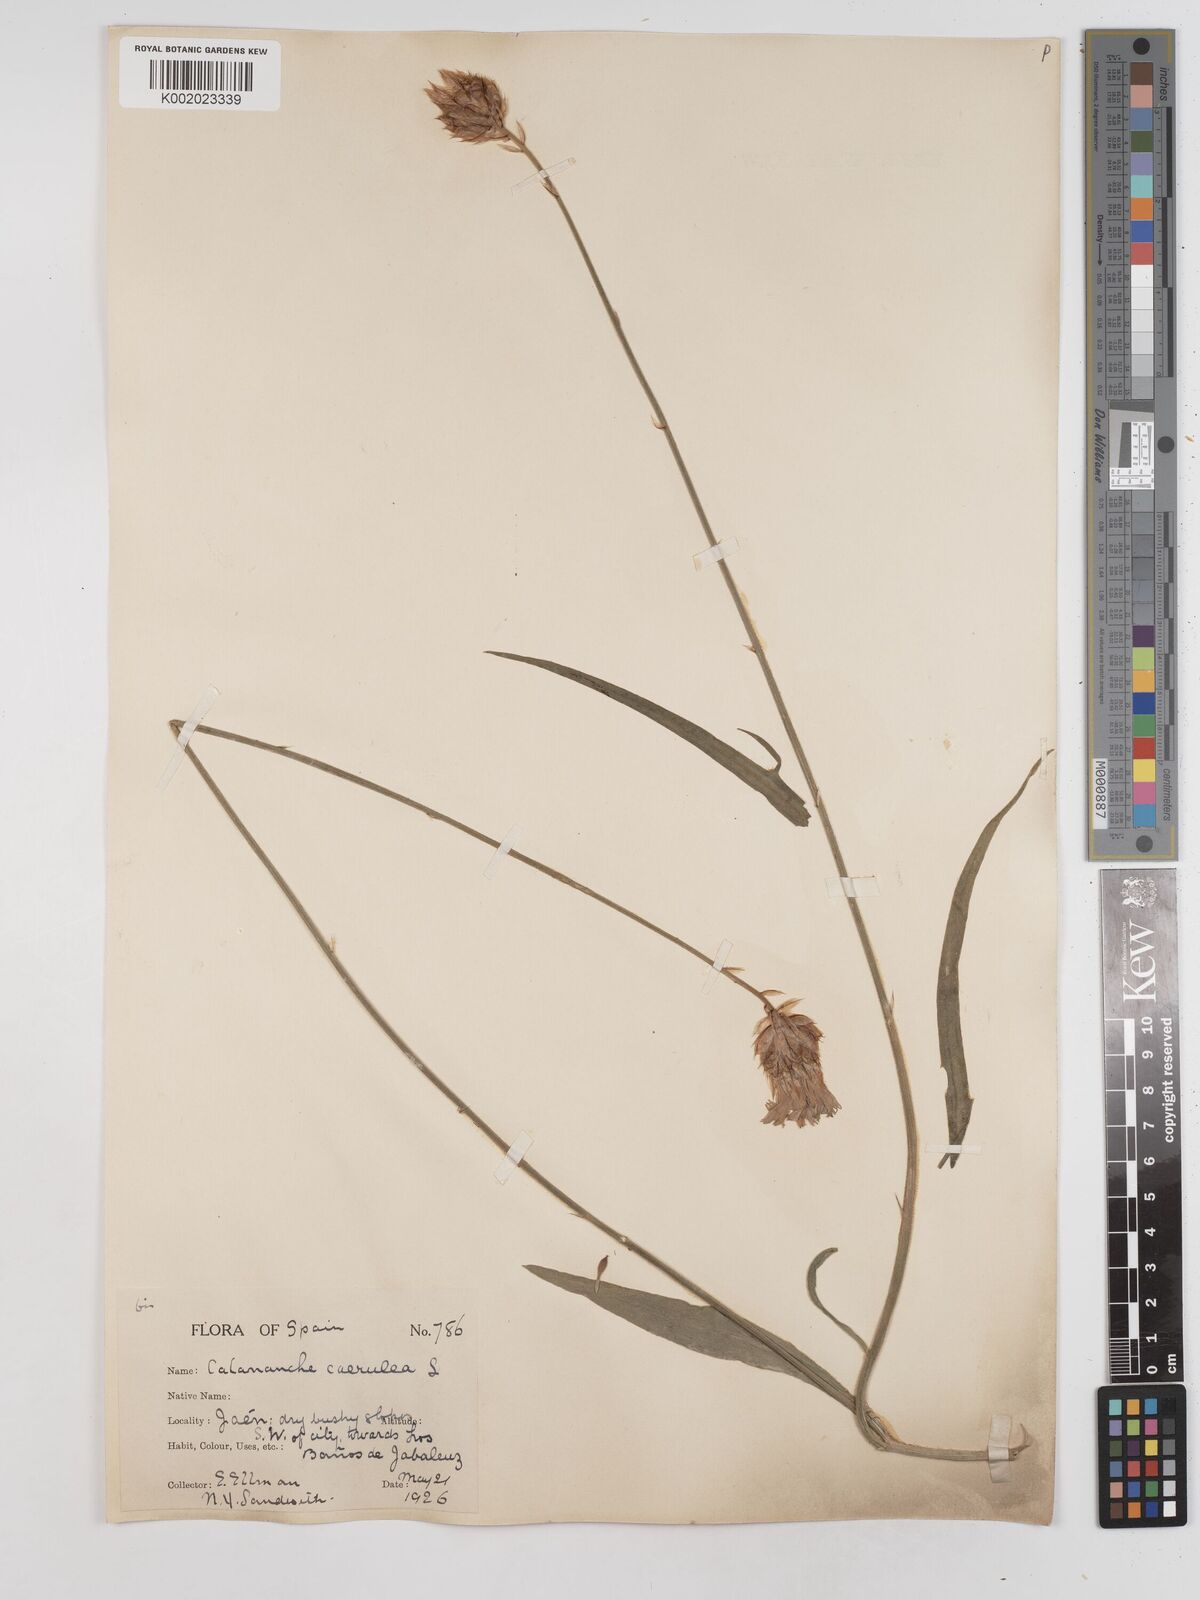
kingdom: Plantae
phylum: Tracheophyta
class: Magnoliopsida
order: Asterales
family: Asteraceae
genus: Catananche
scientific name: Catananche caerulea
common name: Blue cupidone
